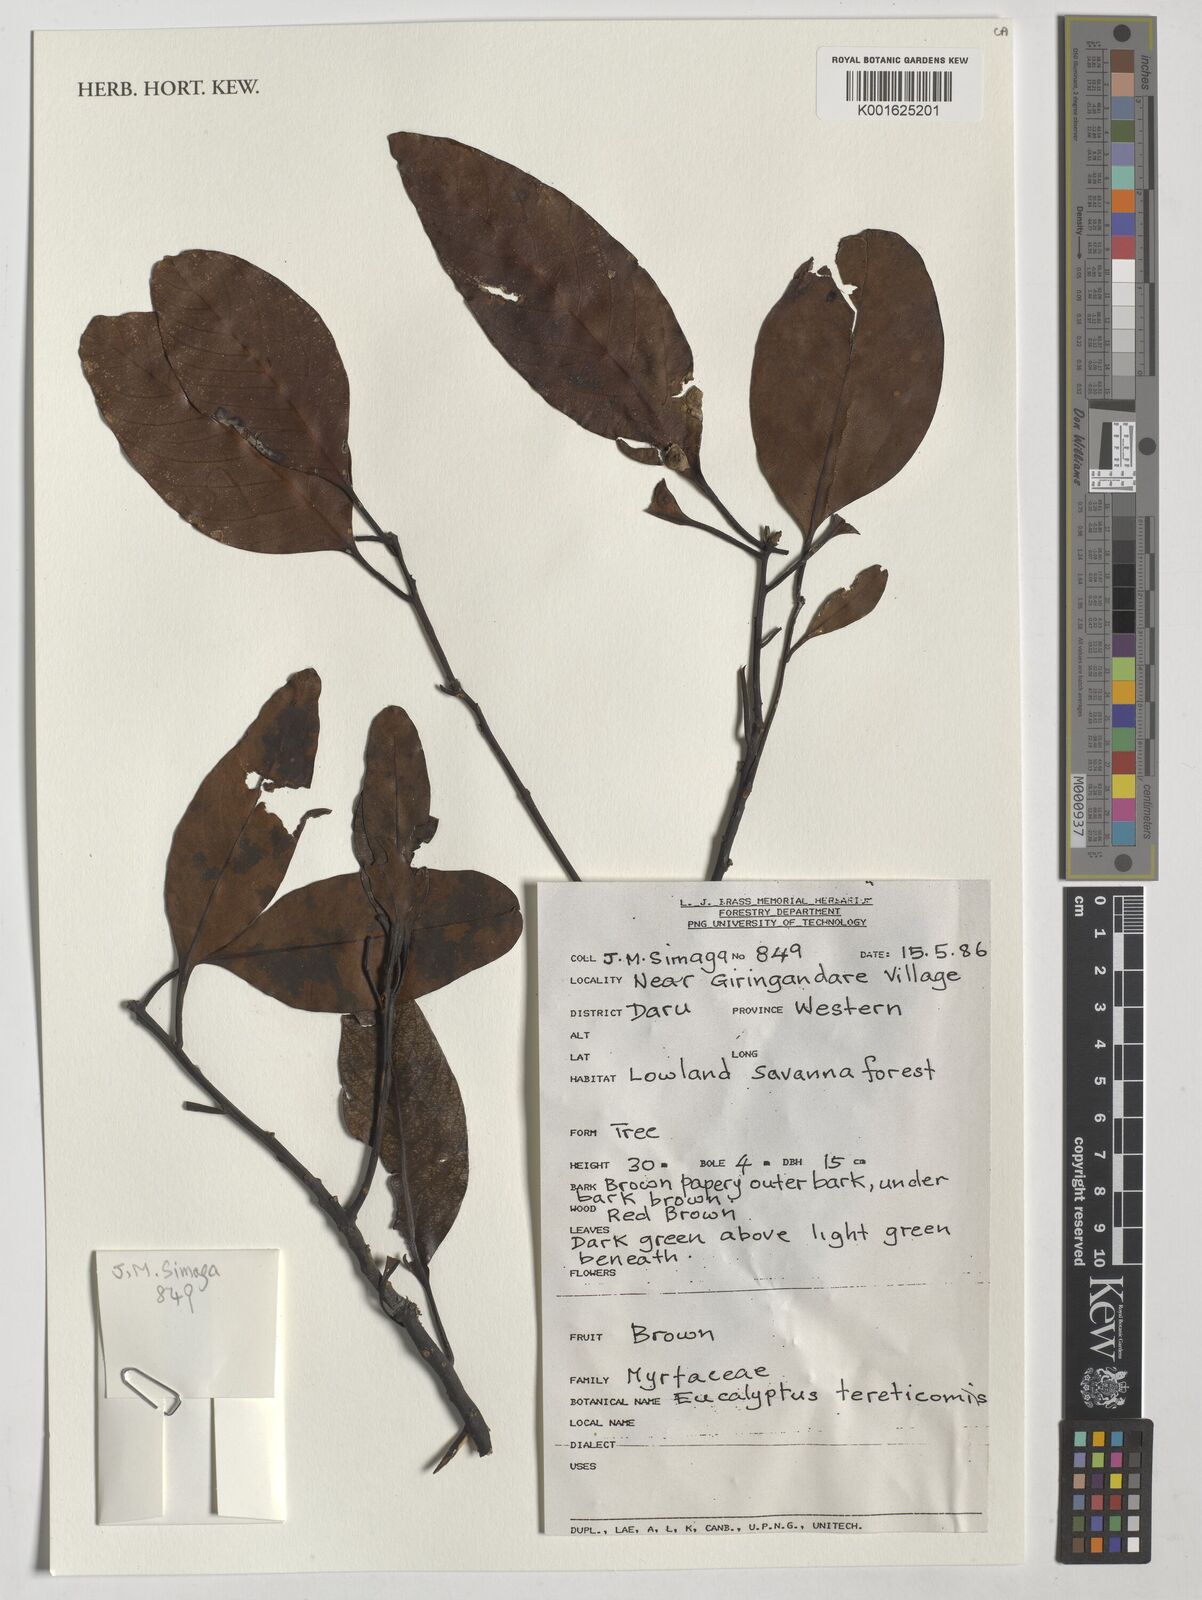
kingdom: Plantae
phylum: Tracheophyta
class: Magnoliopsida
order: Myrtales
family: Myrtaceae
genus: Eucalyptus
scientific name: Eucalyptus tereticornis
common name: Forest redgum
